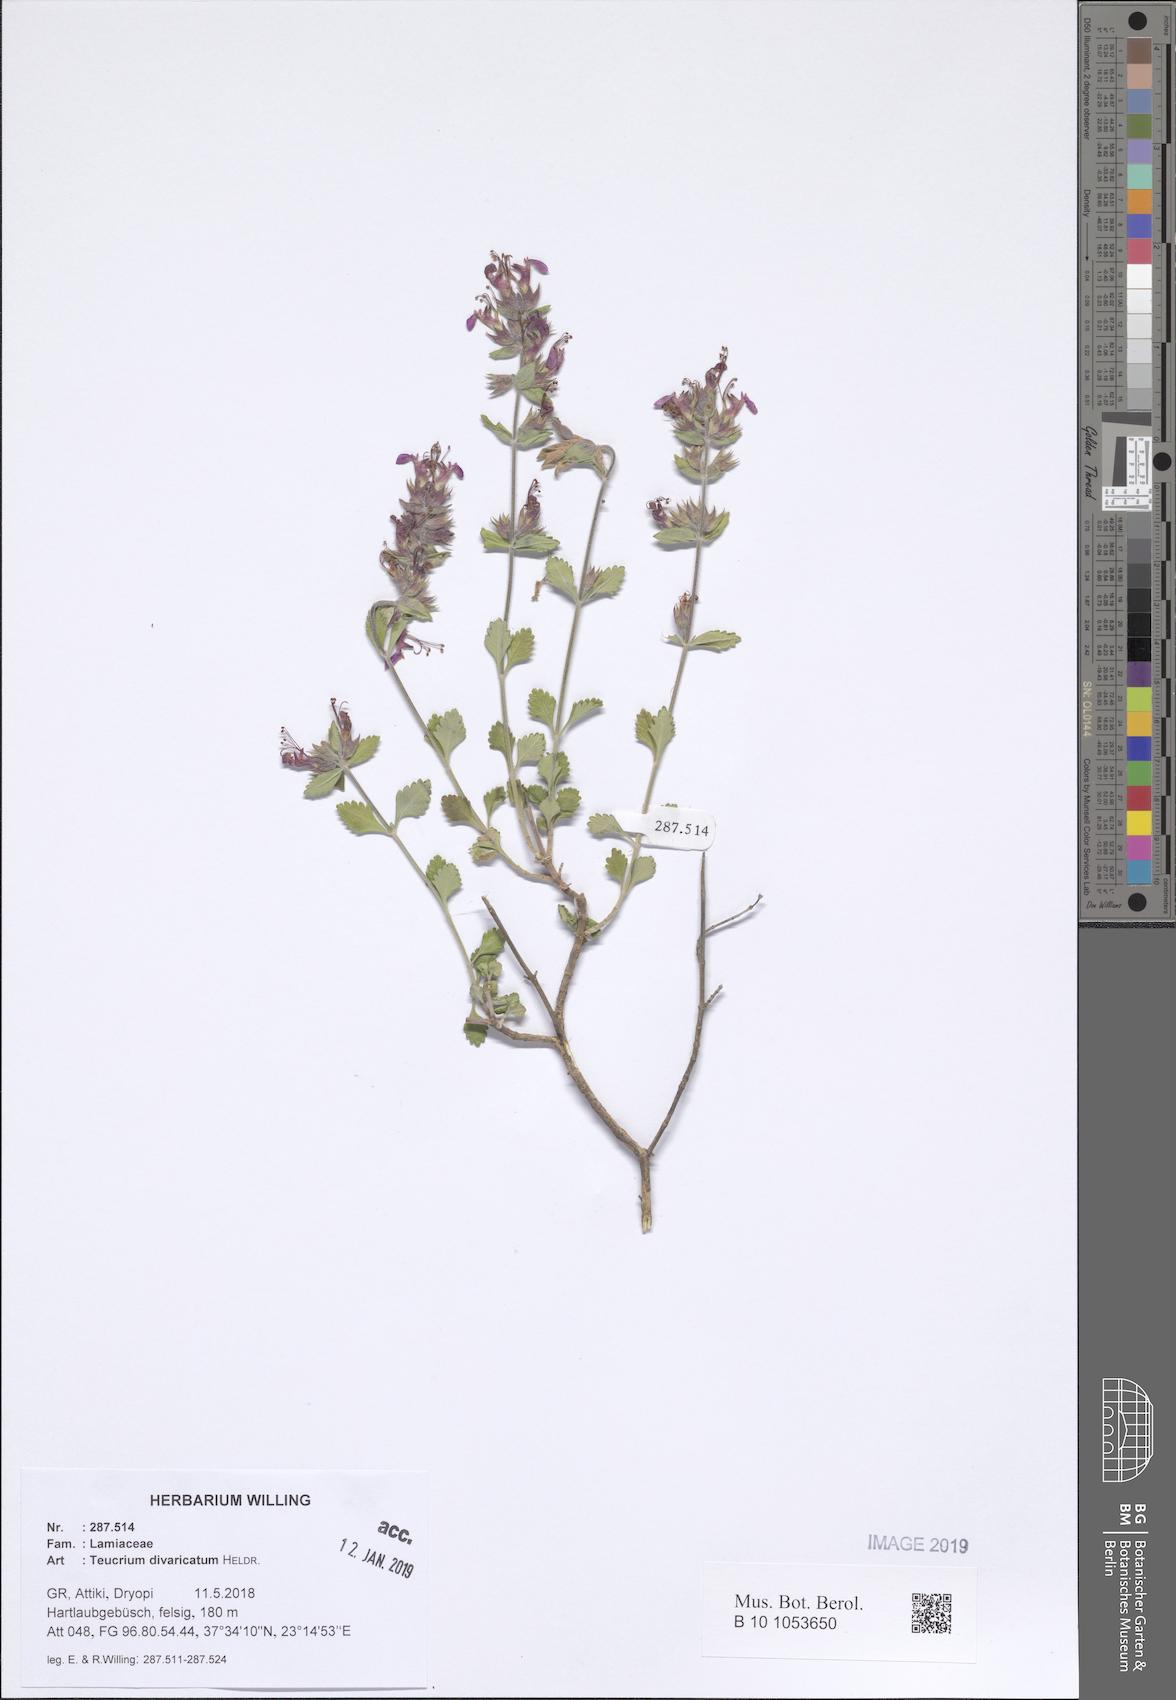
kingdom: Plantae
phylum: Tracheophyta
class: Magnoliopsida
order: Lamiales
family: Lamiaceae
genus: Teucrium
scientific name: Teucrium divaricatum
